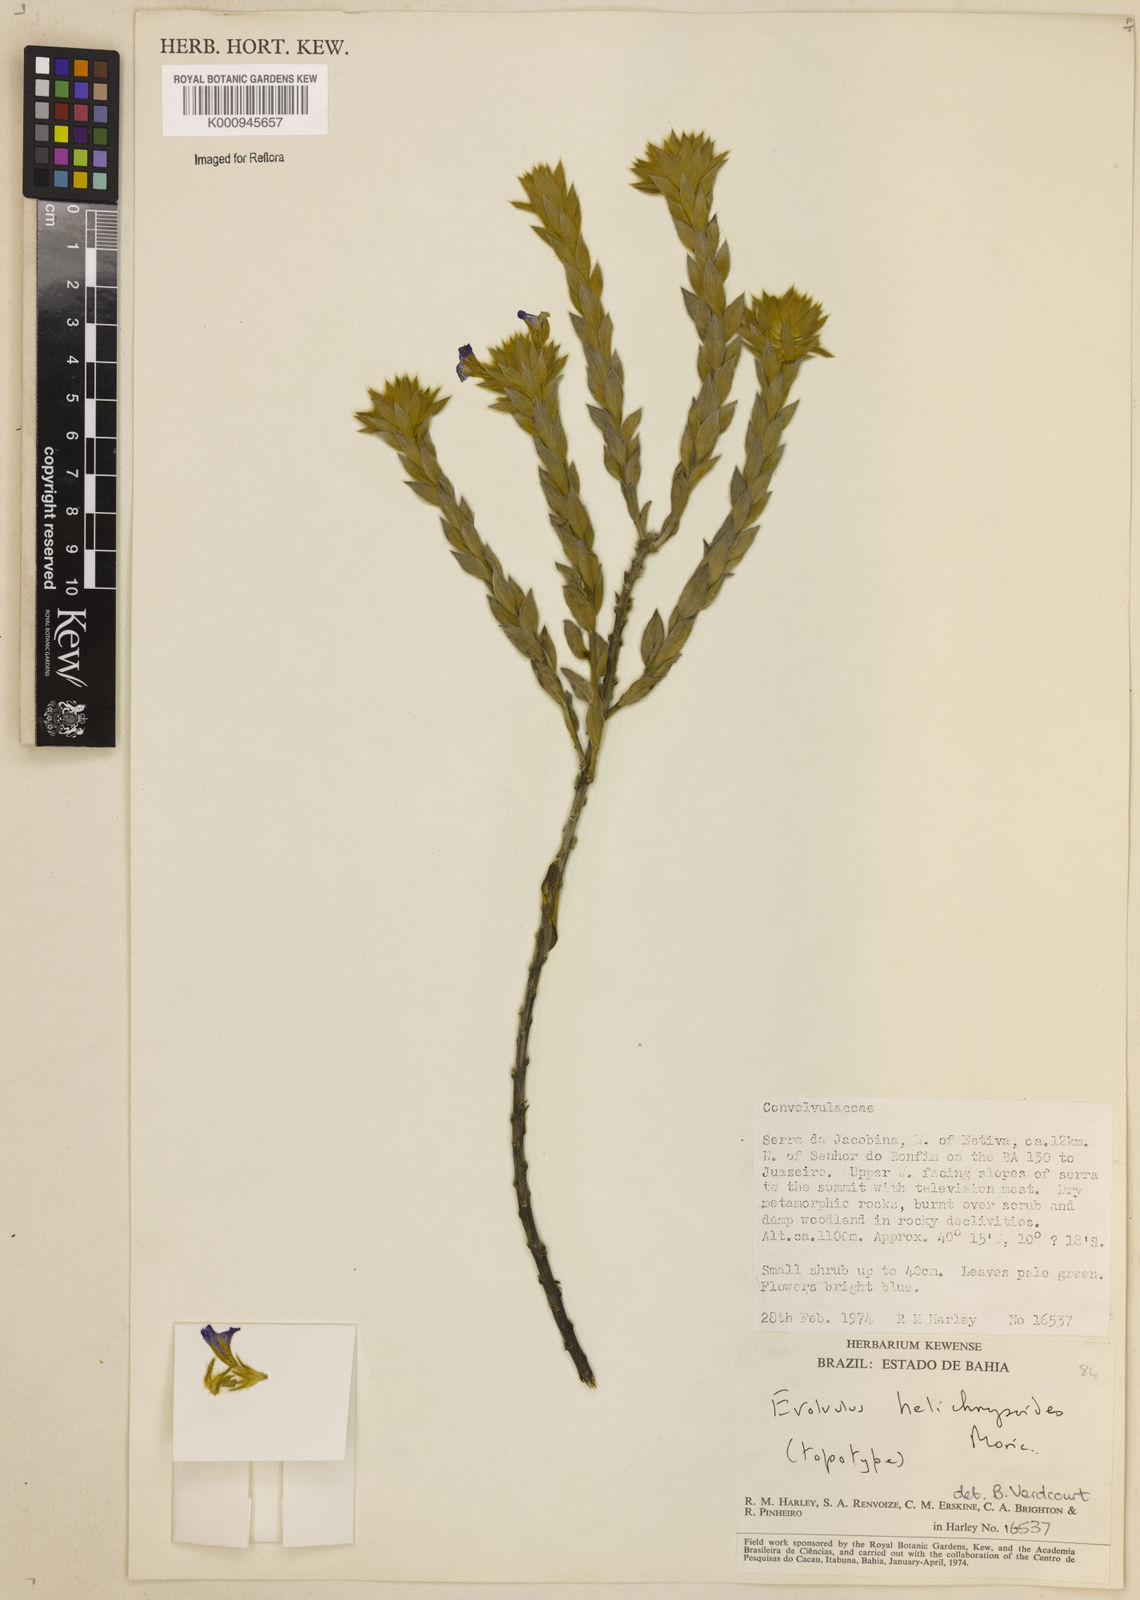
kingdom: Plantae
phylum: Tracheophyta
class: Magnoliopsida
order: Solanales
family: Convolvulaceae
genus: Evolvulus
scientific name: Evolvulus helichrysoides
